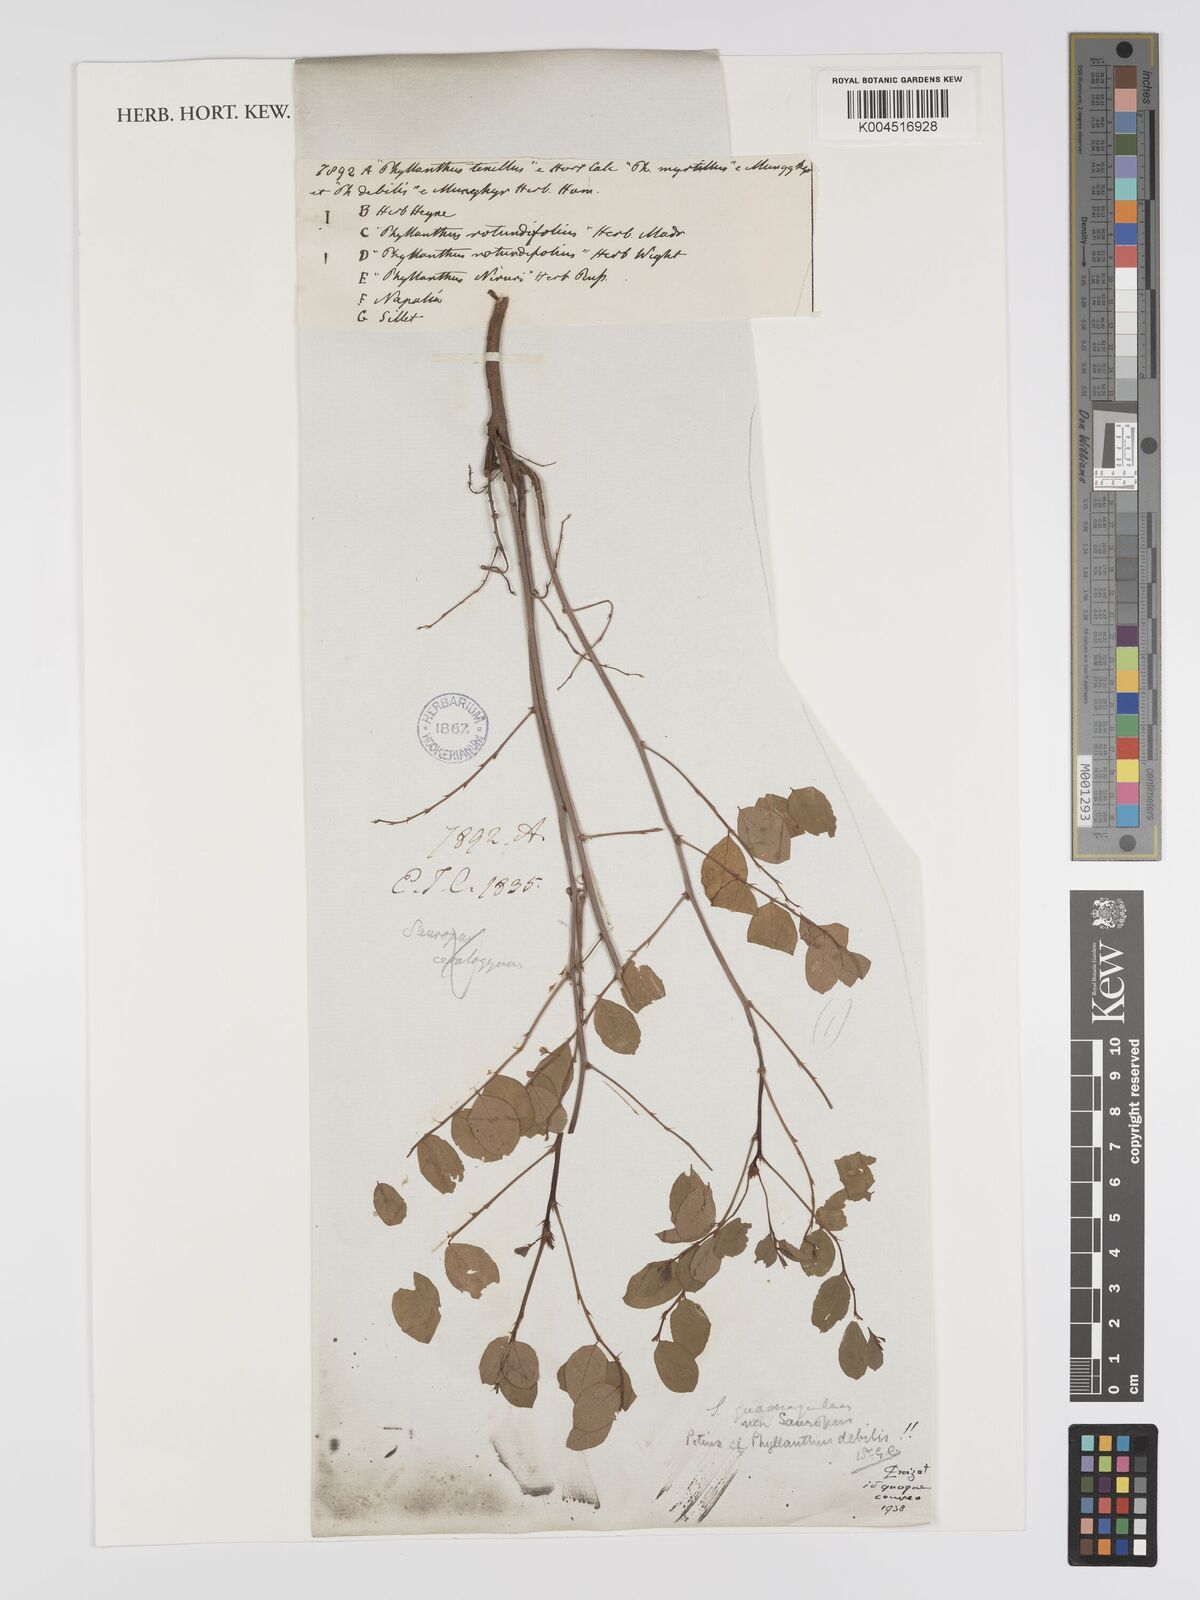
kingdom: Plantae
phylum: Tracheophyta
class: Magnoliopsida
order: Malpighiales
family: Phyllanthaceae
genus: Phyllanthus
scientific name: Phyllanthus tenellus
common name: Mascarene island leaf-flower
